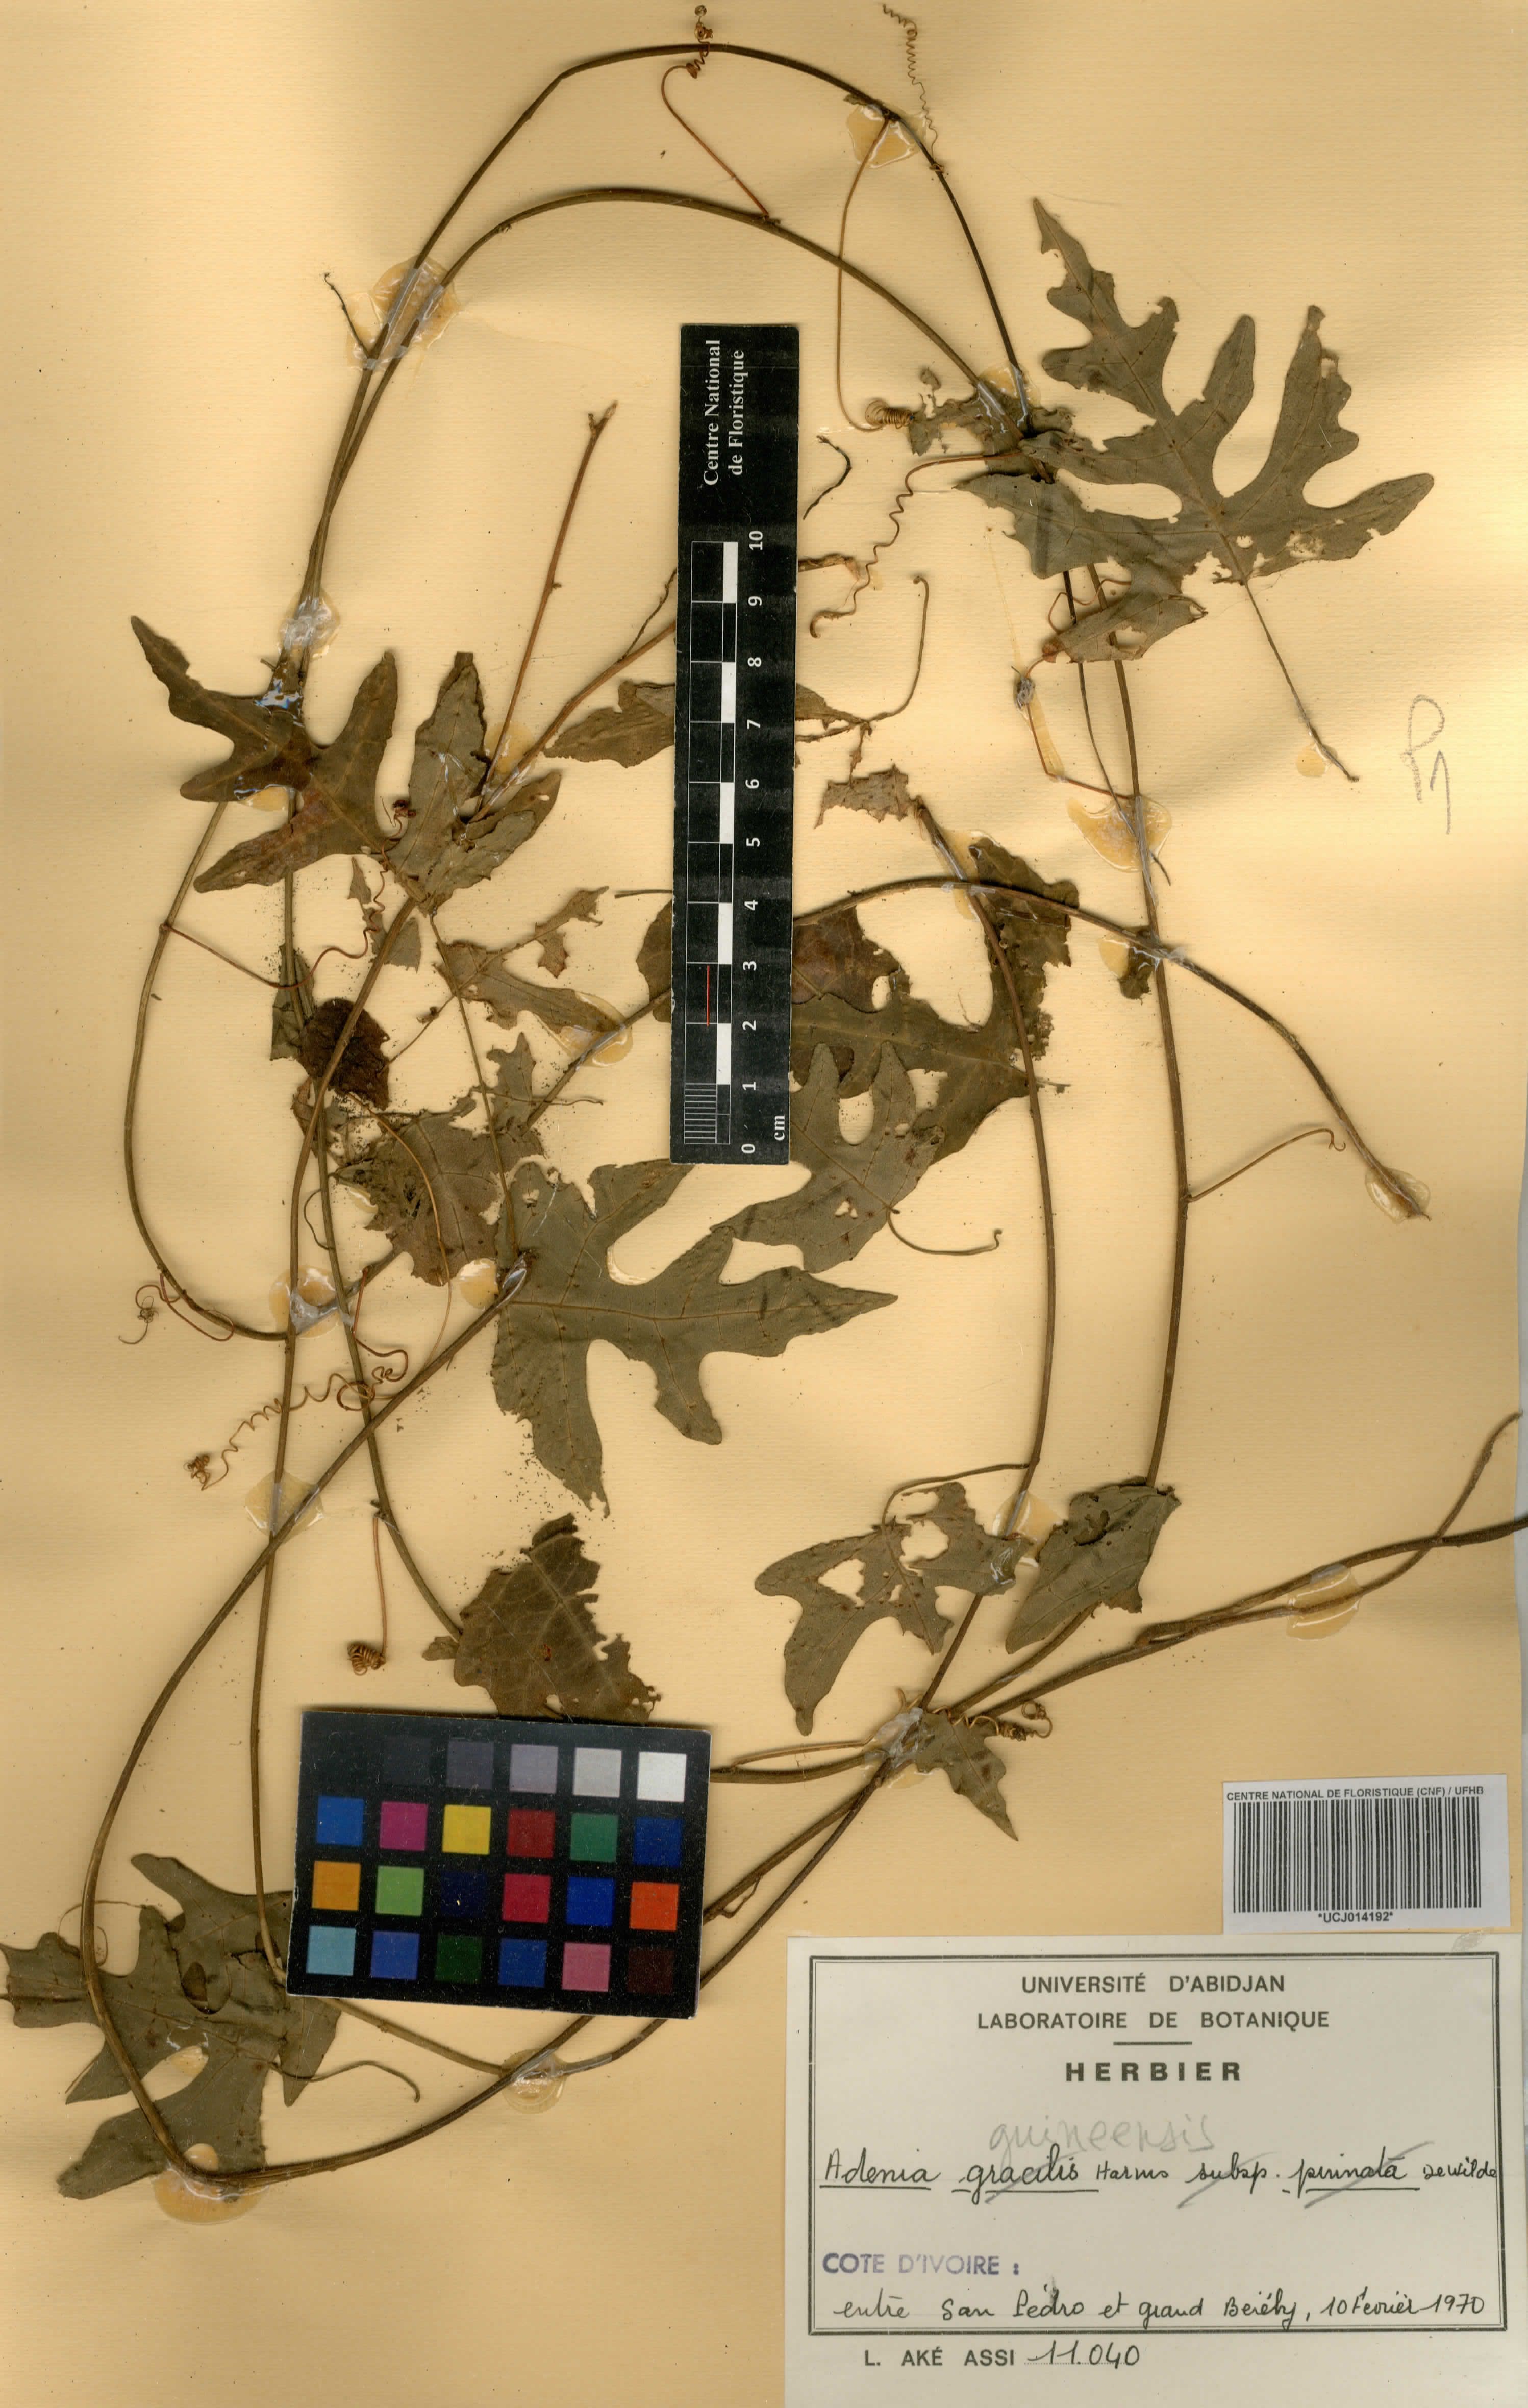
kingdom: Plantae
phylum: Tracheophyta
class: Magnoliopsida
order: Malpighiales
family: Passifloraceae
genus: Adenia
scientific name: Adenia cissampeloides
